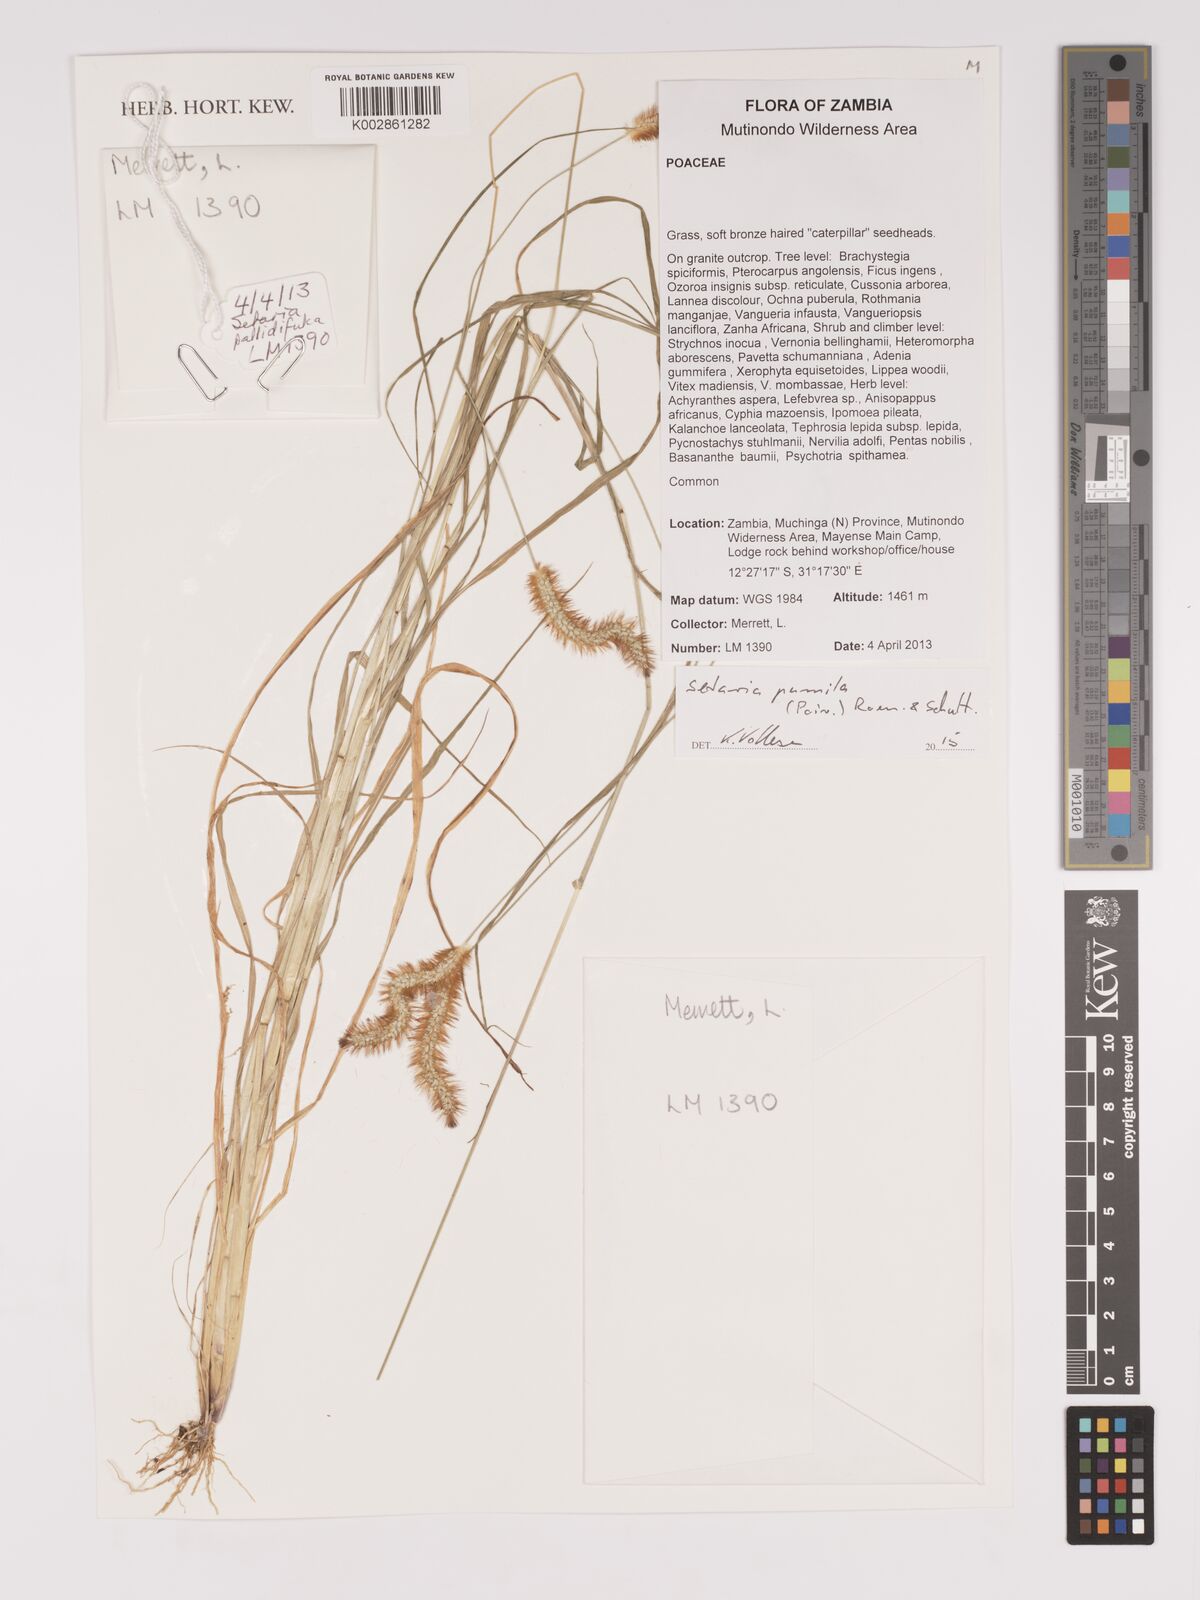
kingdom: Plantae
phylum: Tracheophyta
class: Liliopsida
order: Poales
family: Poaceae
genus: Setaria
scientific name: Setaria pumila
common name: Yellow bristle-grass
